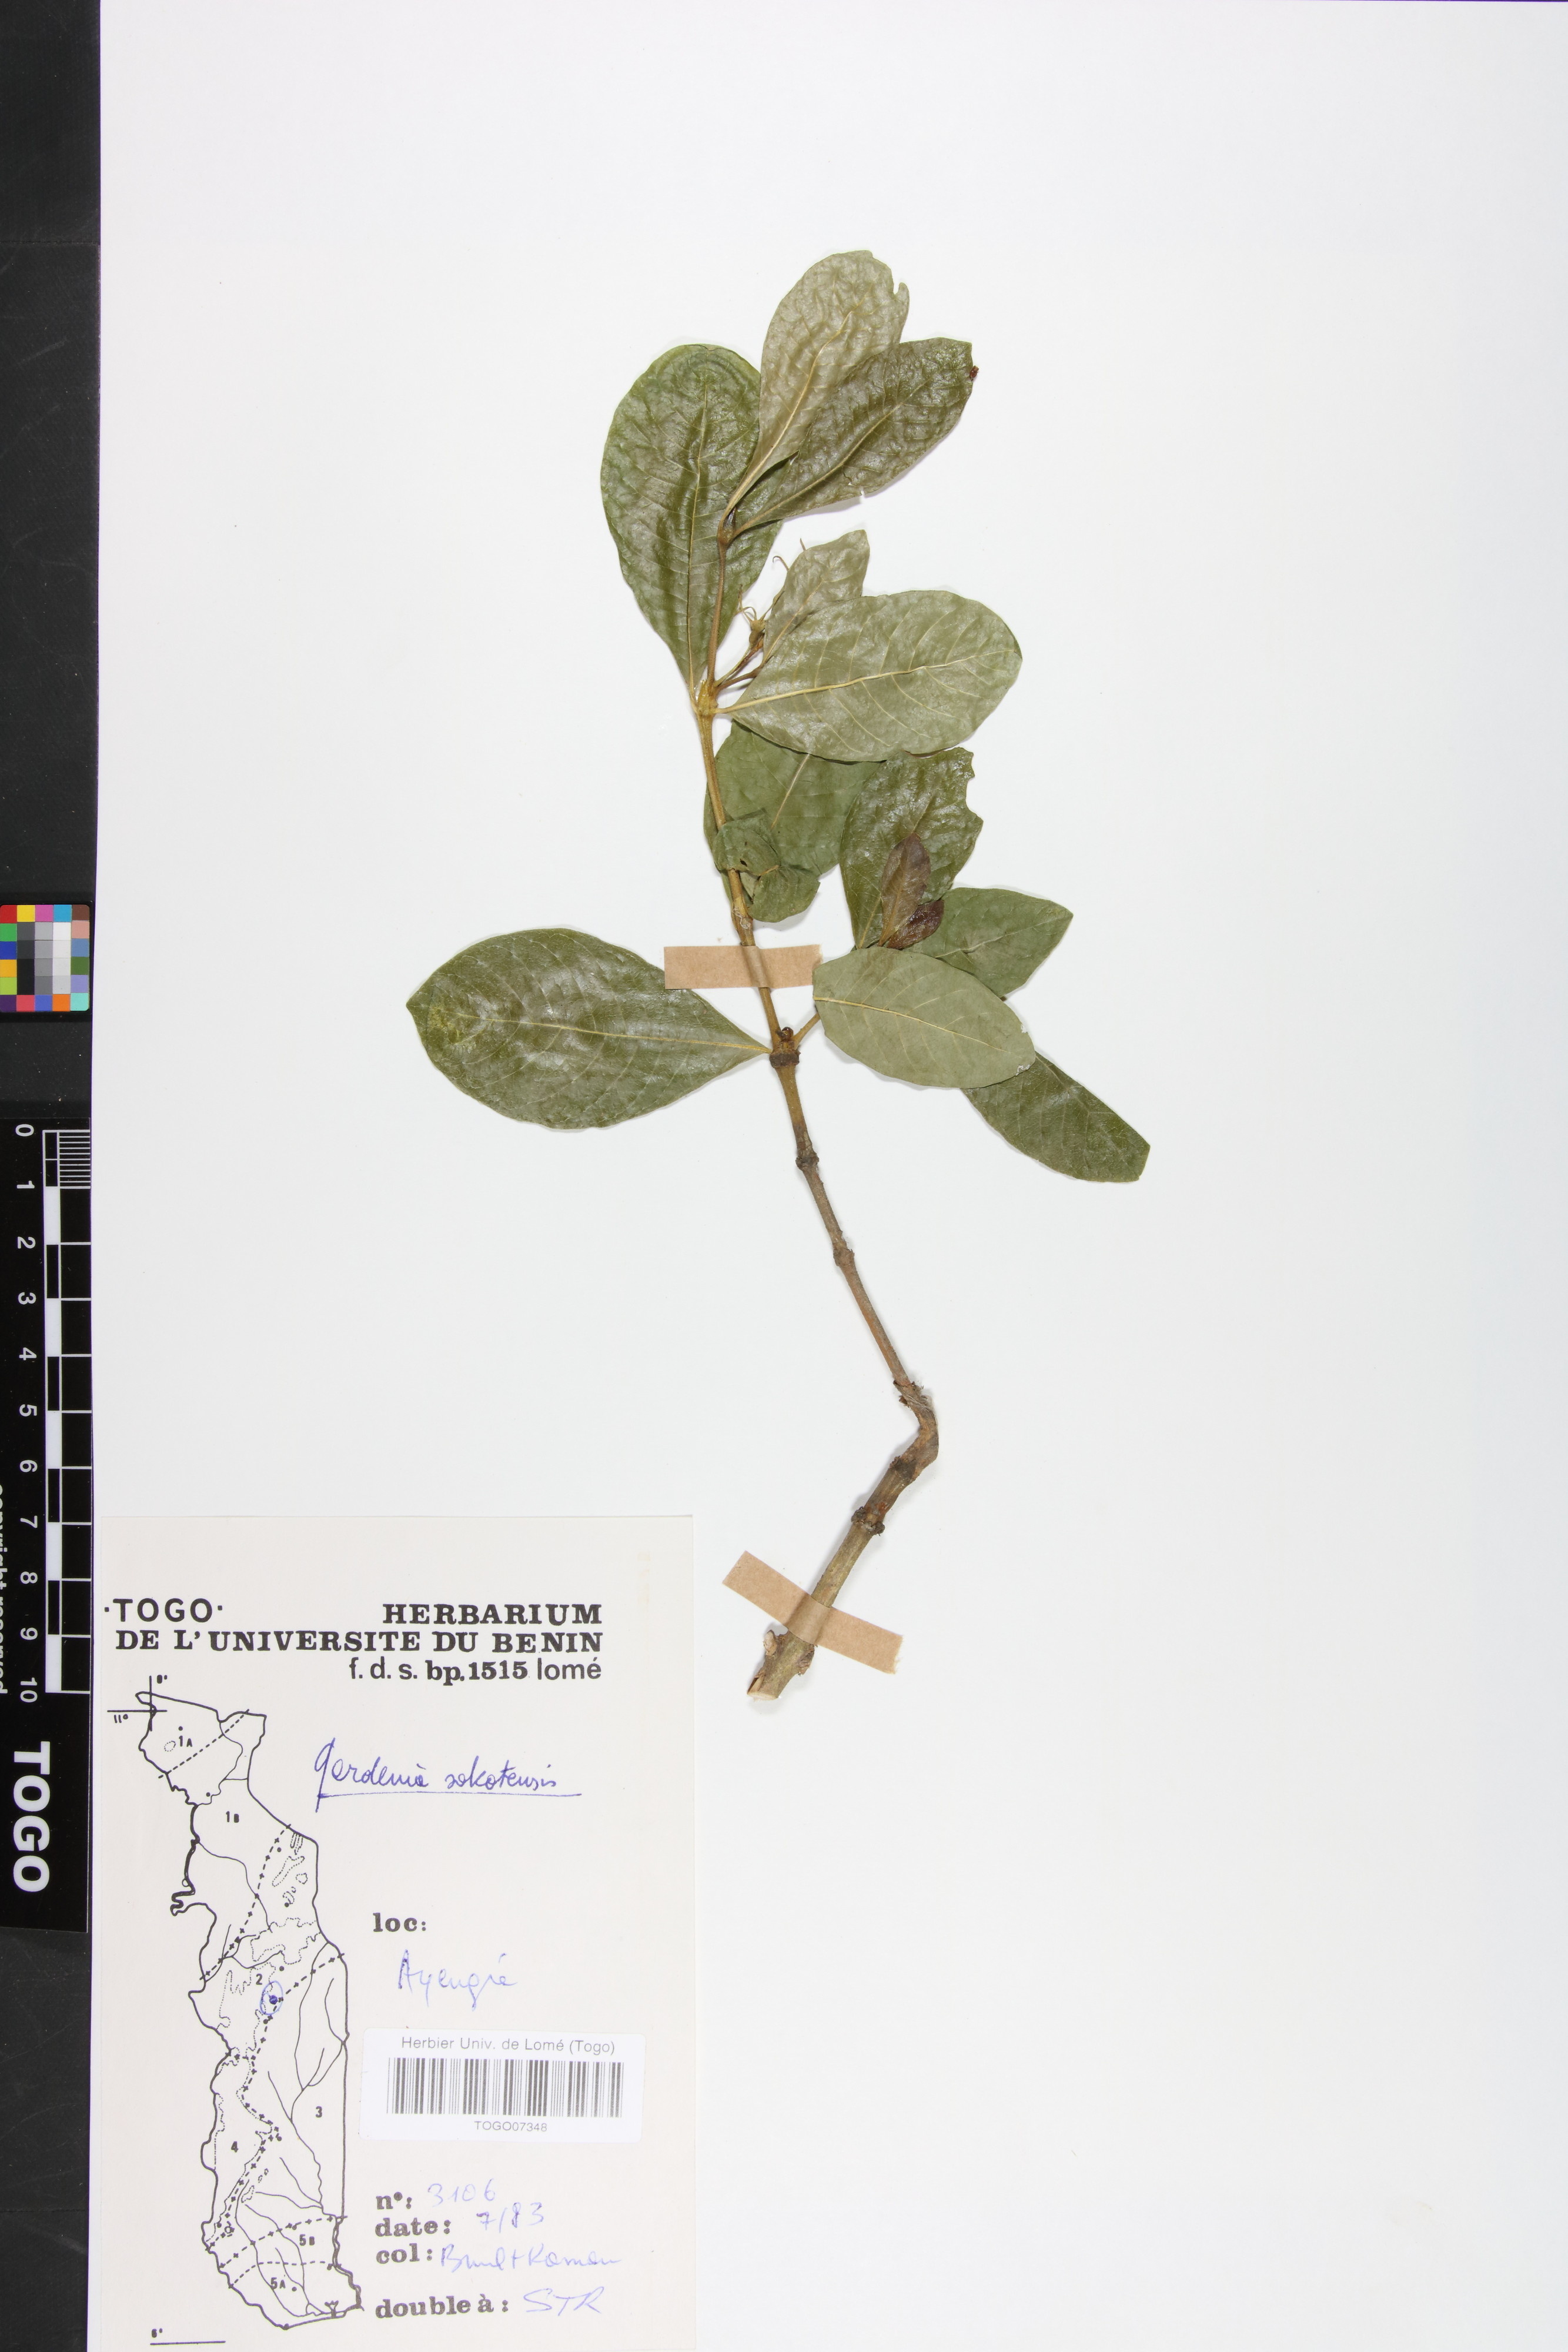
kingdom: Plantae
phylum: Tracheophyta
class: Magnoliopsida
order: Gentianales
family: Rubiaceae
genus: Gardenia
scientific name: Gardenia sokotensis
